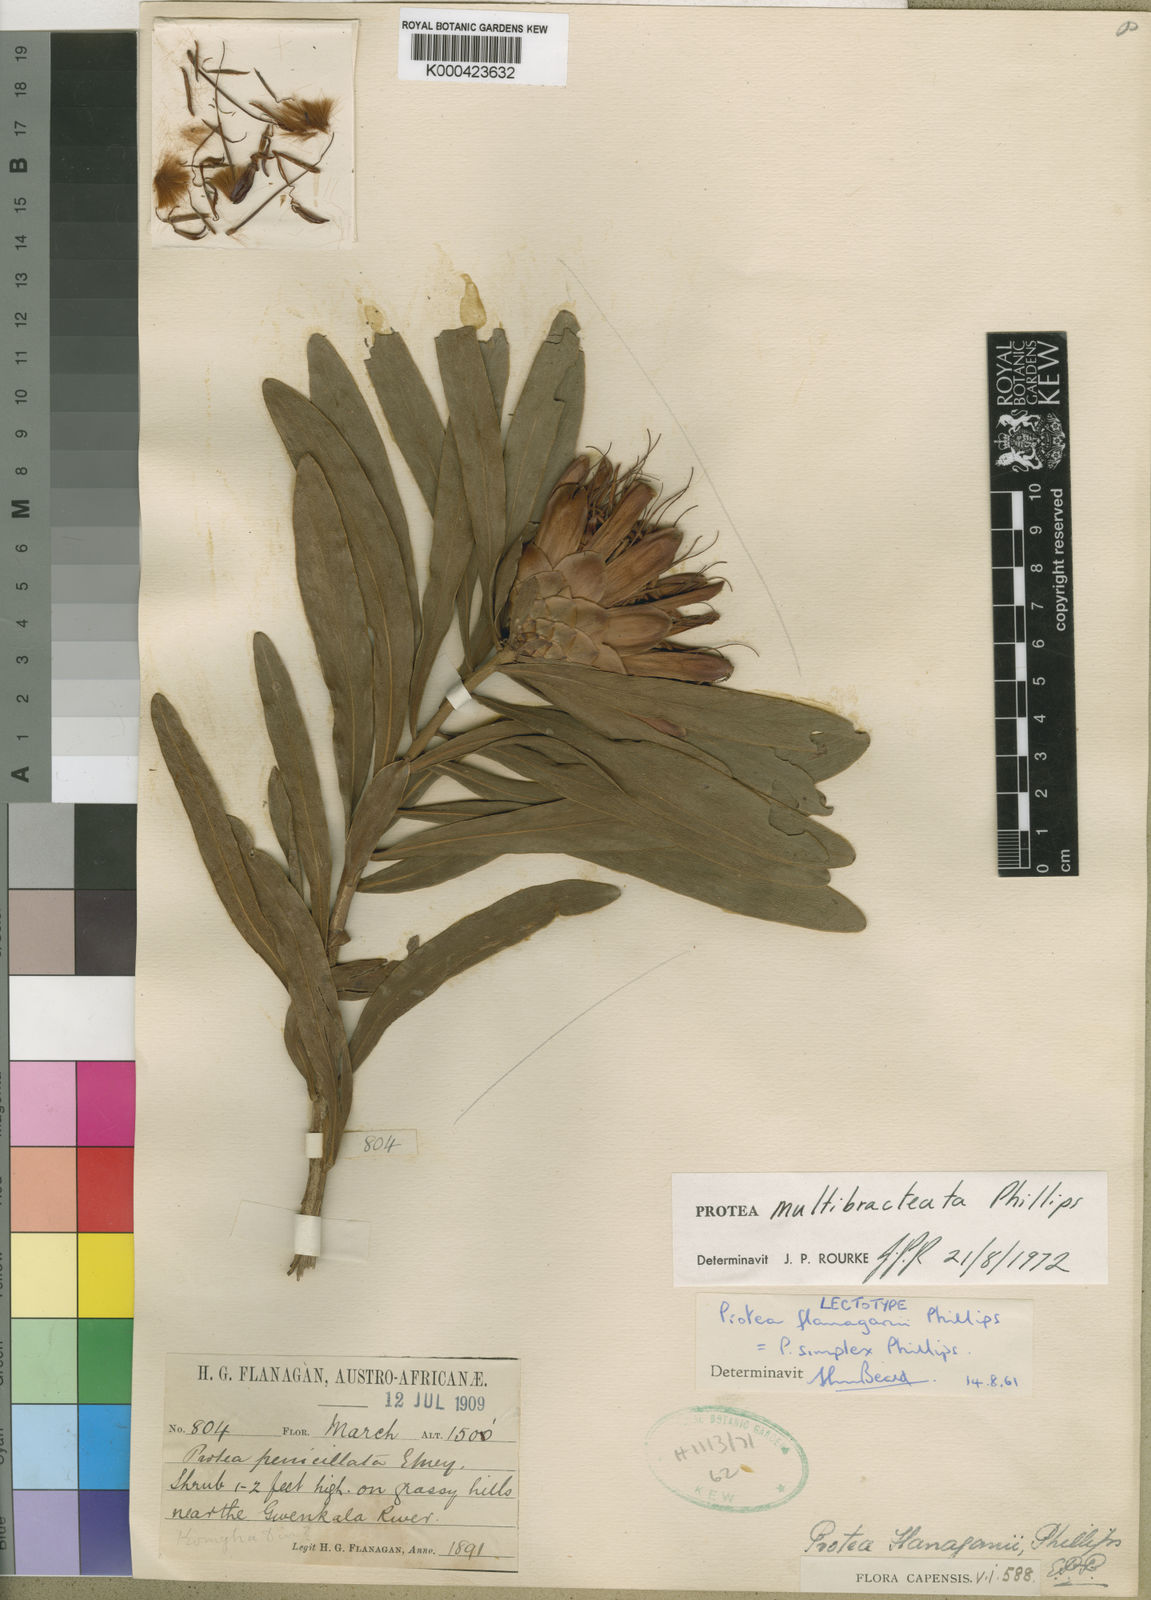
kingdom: Plantae
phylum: Tracheophyta
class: Magnoliopsida
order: Proteales
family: Proteaceae
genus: Protea
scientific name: Protea simplex
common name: Dwarf grassveld sugarbush
